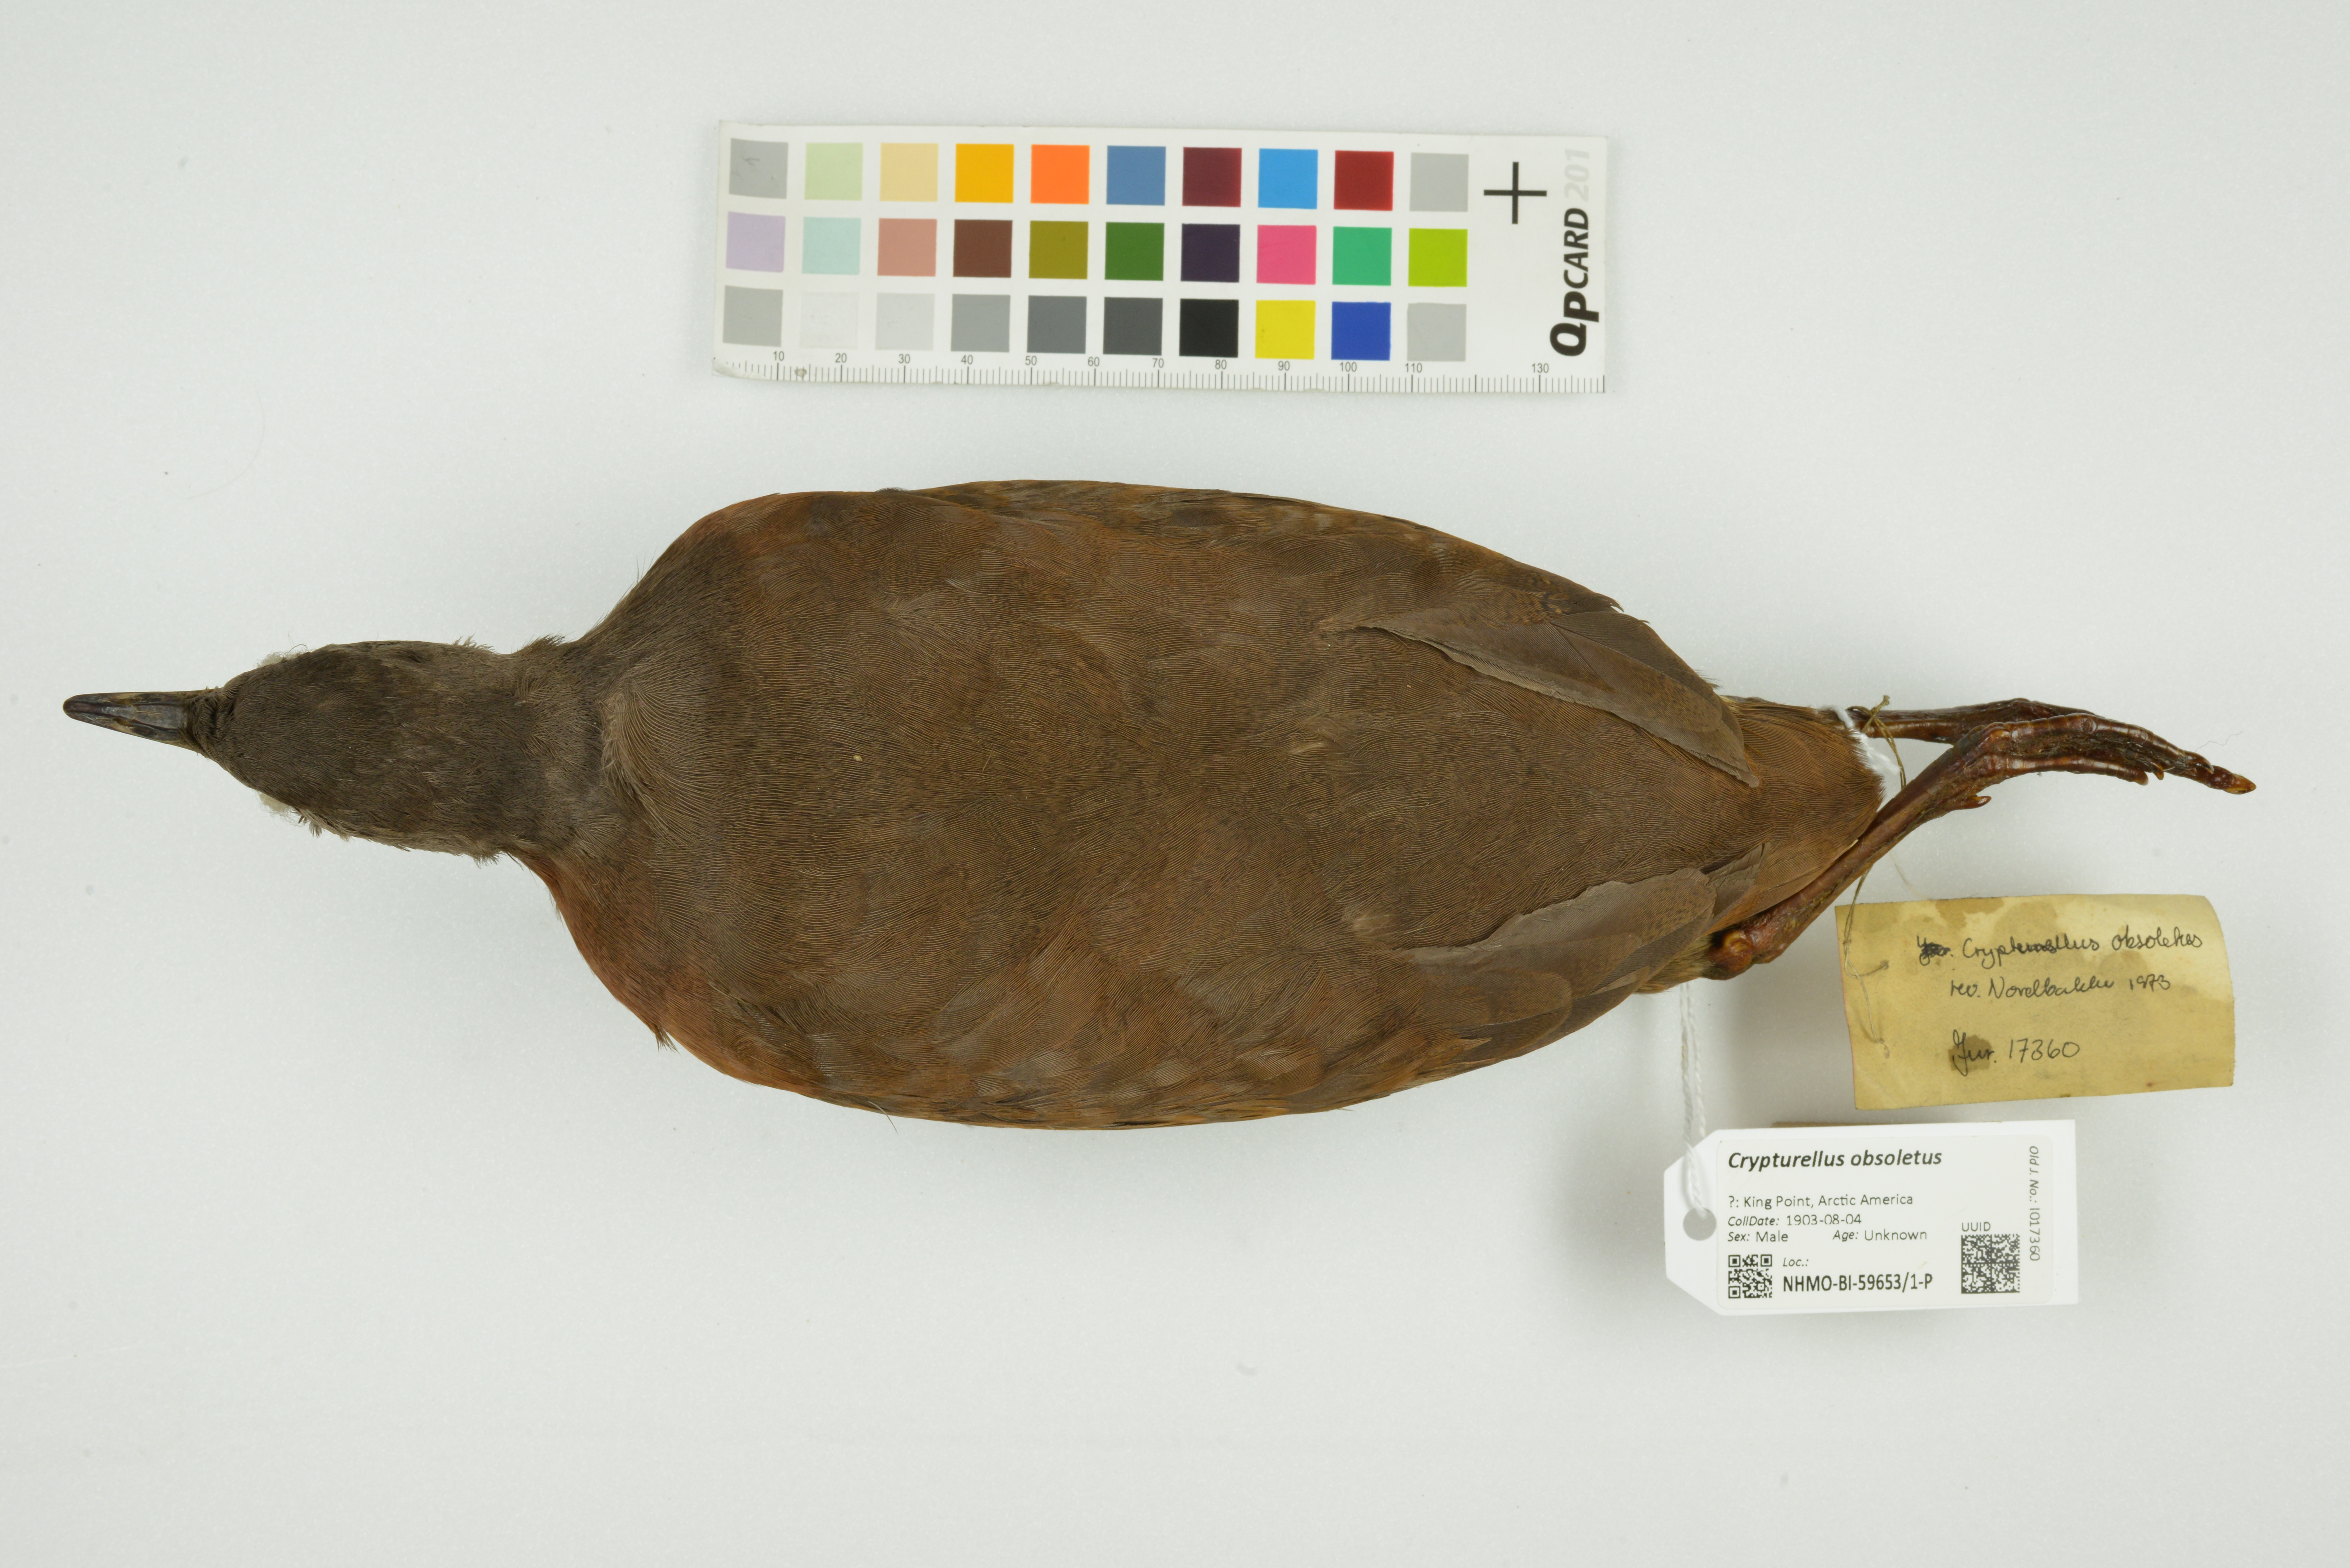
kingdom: Animalia
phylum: Chordata
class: Aves
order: Tinamiformes
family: Tinamidae
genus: Crypturellus
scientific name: Crypturellus obsoletus
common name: Brown tinamou
